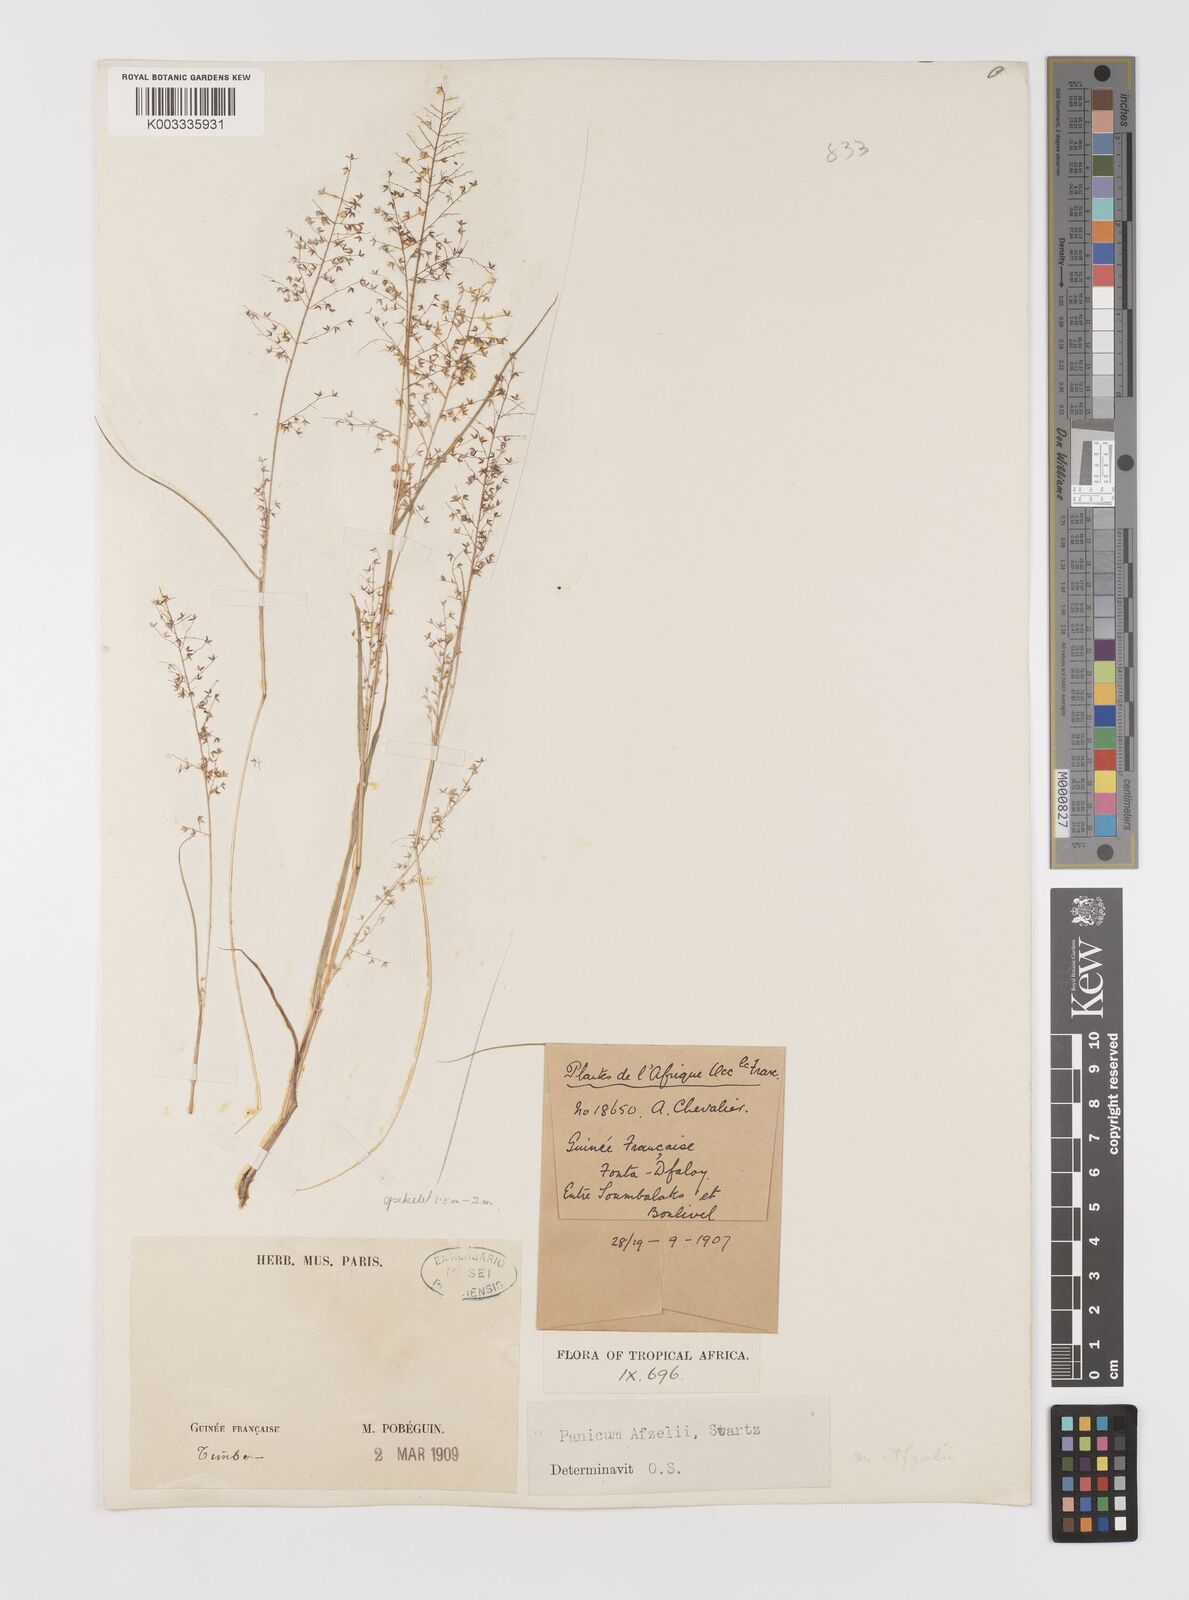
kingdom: Plantae
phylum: Tracheophyta
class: Liliopsida
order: Poales
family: Poaceae
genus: Panicum
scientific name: Panicum afzelii
